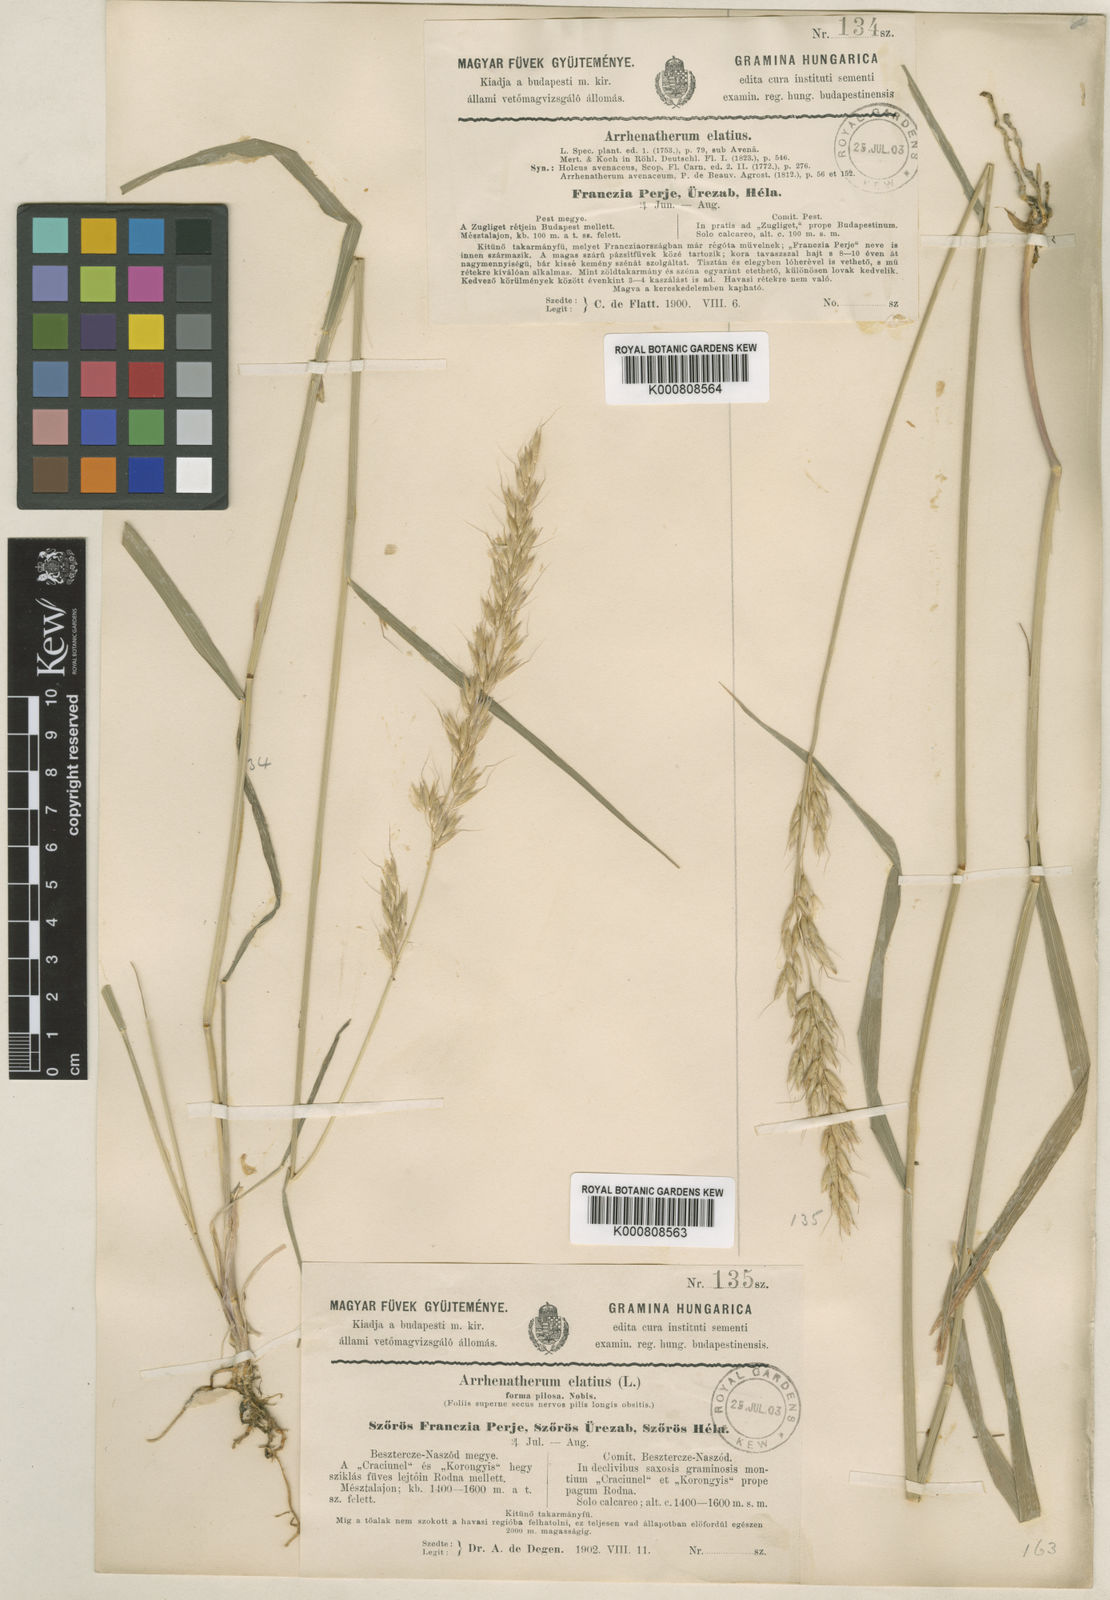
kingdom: Plantae
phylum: Tracheophyta
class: Liliopsida
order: Poales
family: Poaceae
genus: Arrhenatherum
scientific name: Arrhenatherum elatius
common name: Tall oatgrass
